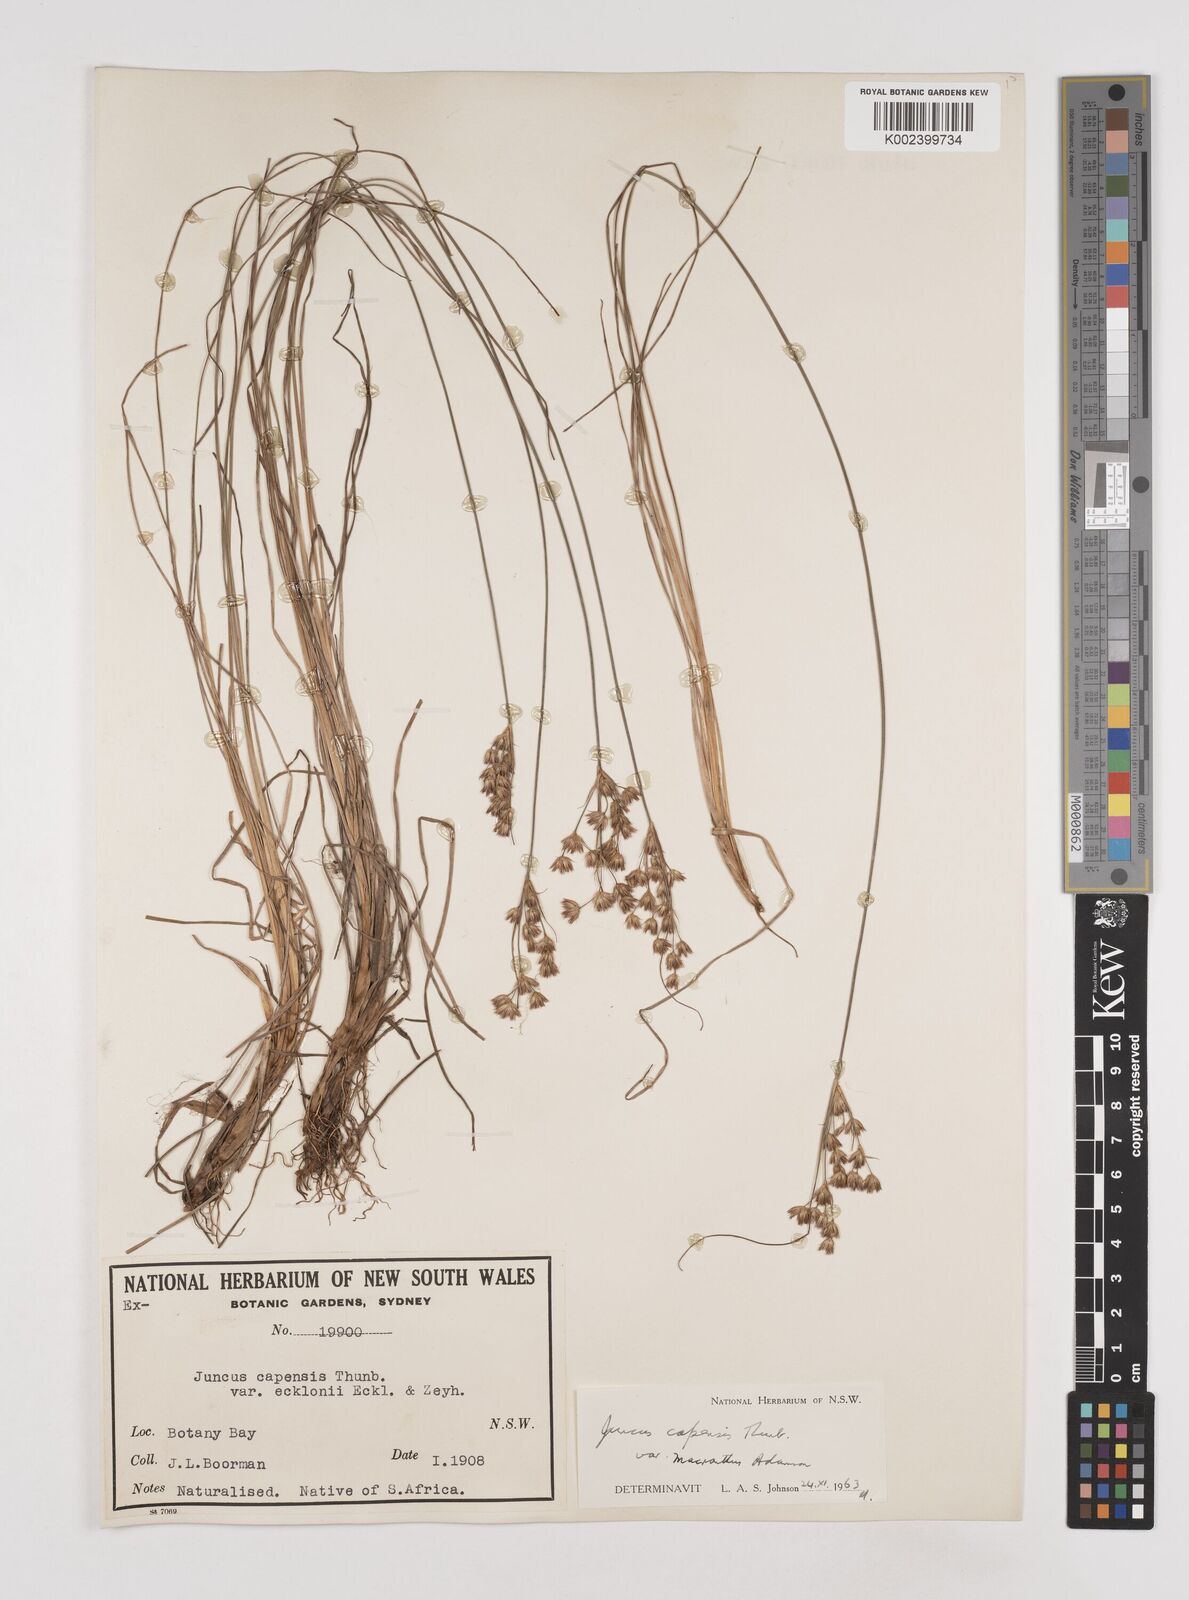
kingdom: Plantae
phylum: Tracheophyta
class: Liliopsida
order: Poales
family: Juncaceae
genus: Juncus
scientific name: Juncus capensis
